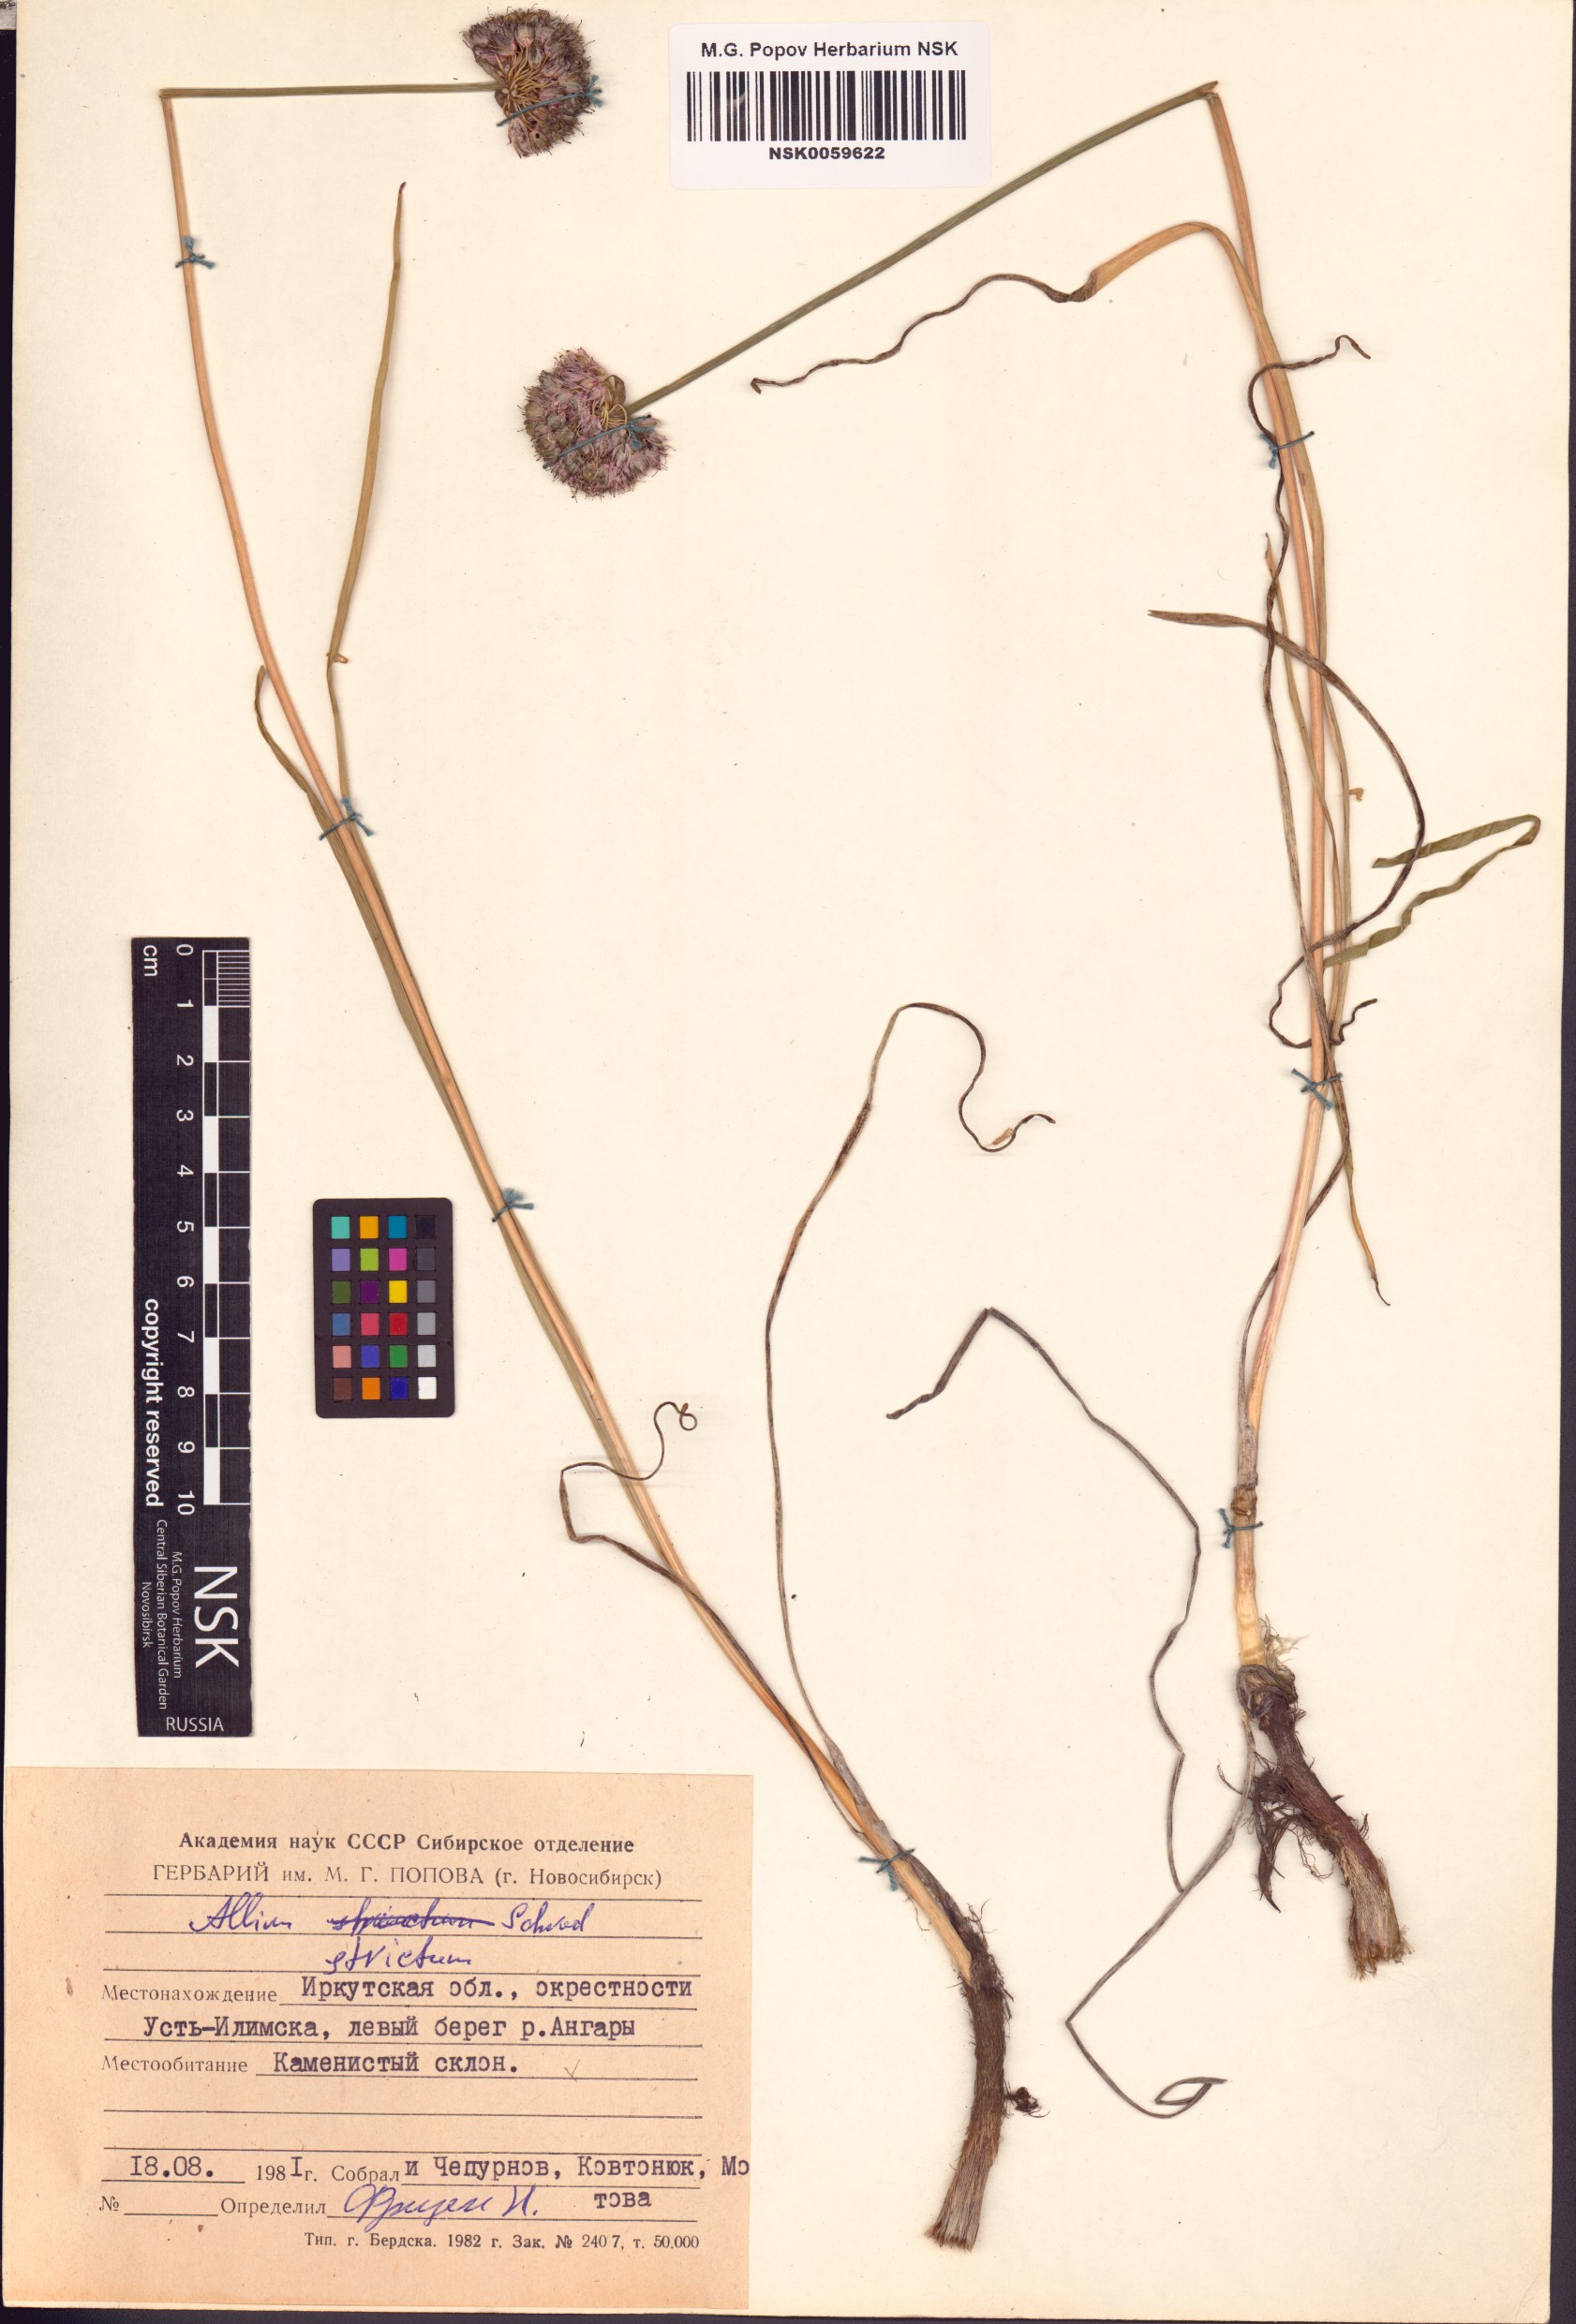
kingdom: Plantae
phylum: Tracheophyta
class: Liliopsida
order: Asparagales
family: Amaryllidaceae
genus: Allium
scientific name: Allium strictum
